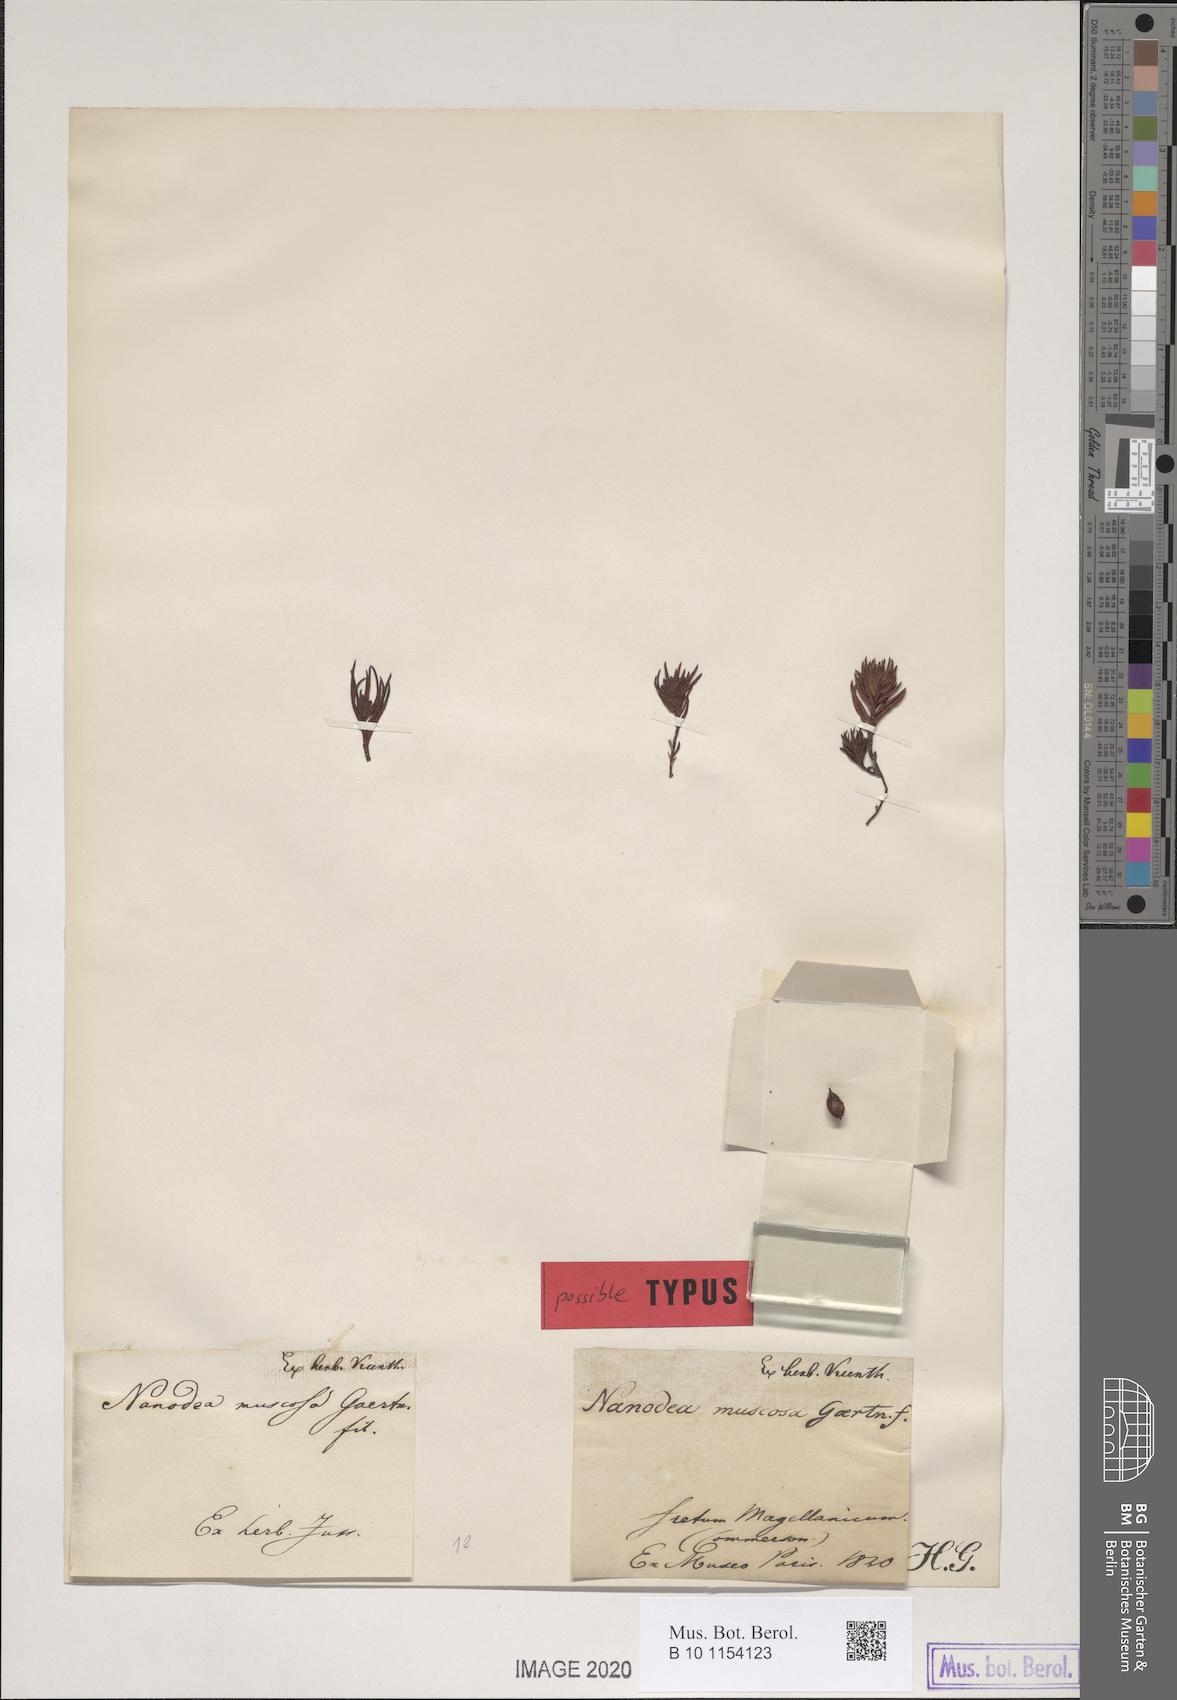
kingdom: Plantae
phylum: Tracheophyta
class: Magnoliopsida
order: Santalales
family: Nanodeaceae
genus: Nanodea
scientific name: Nanodea muscosa
